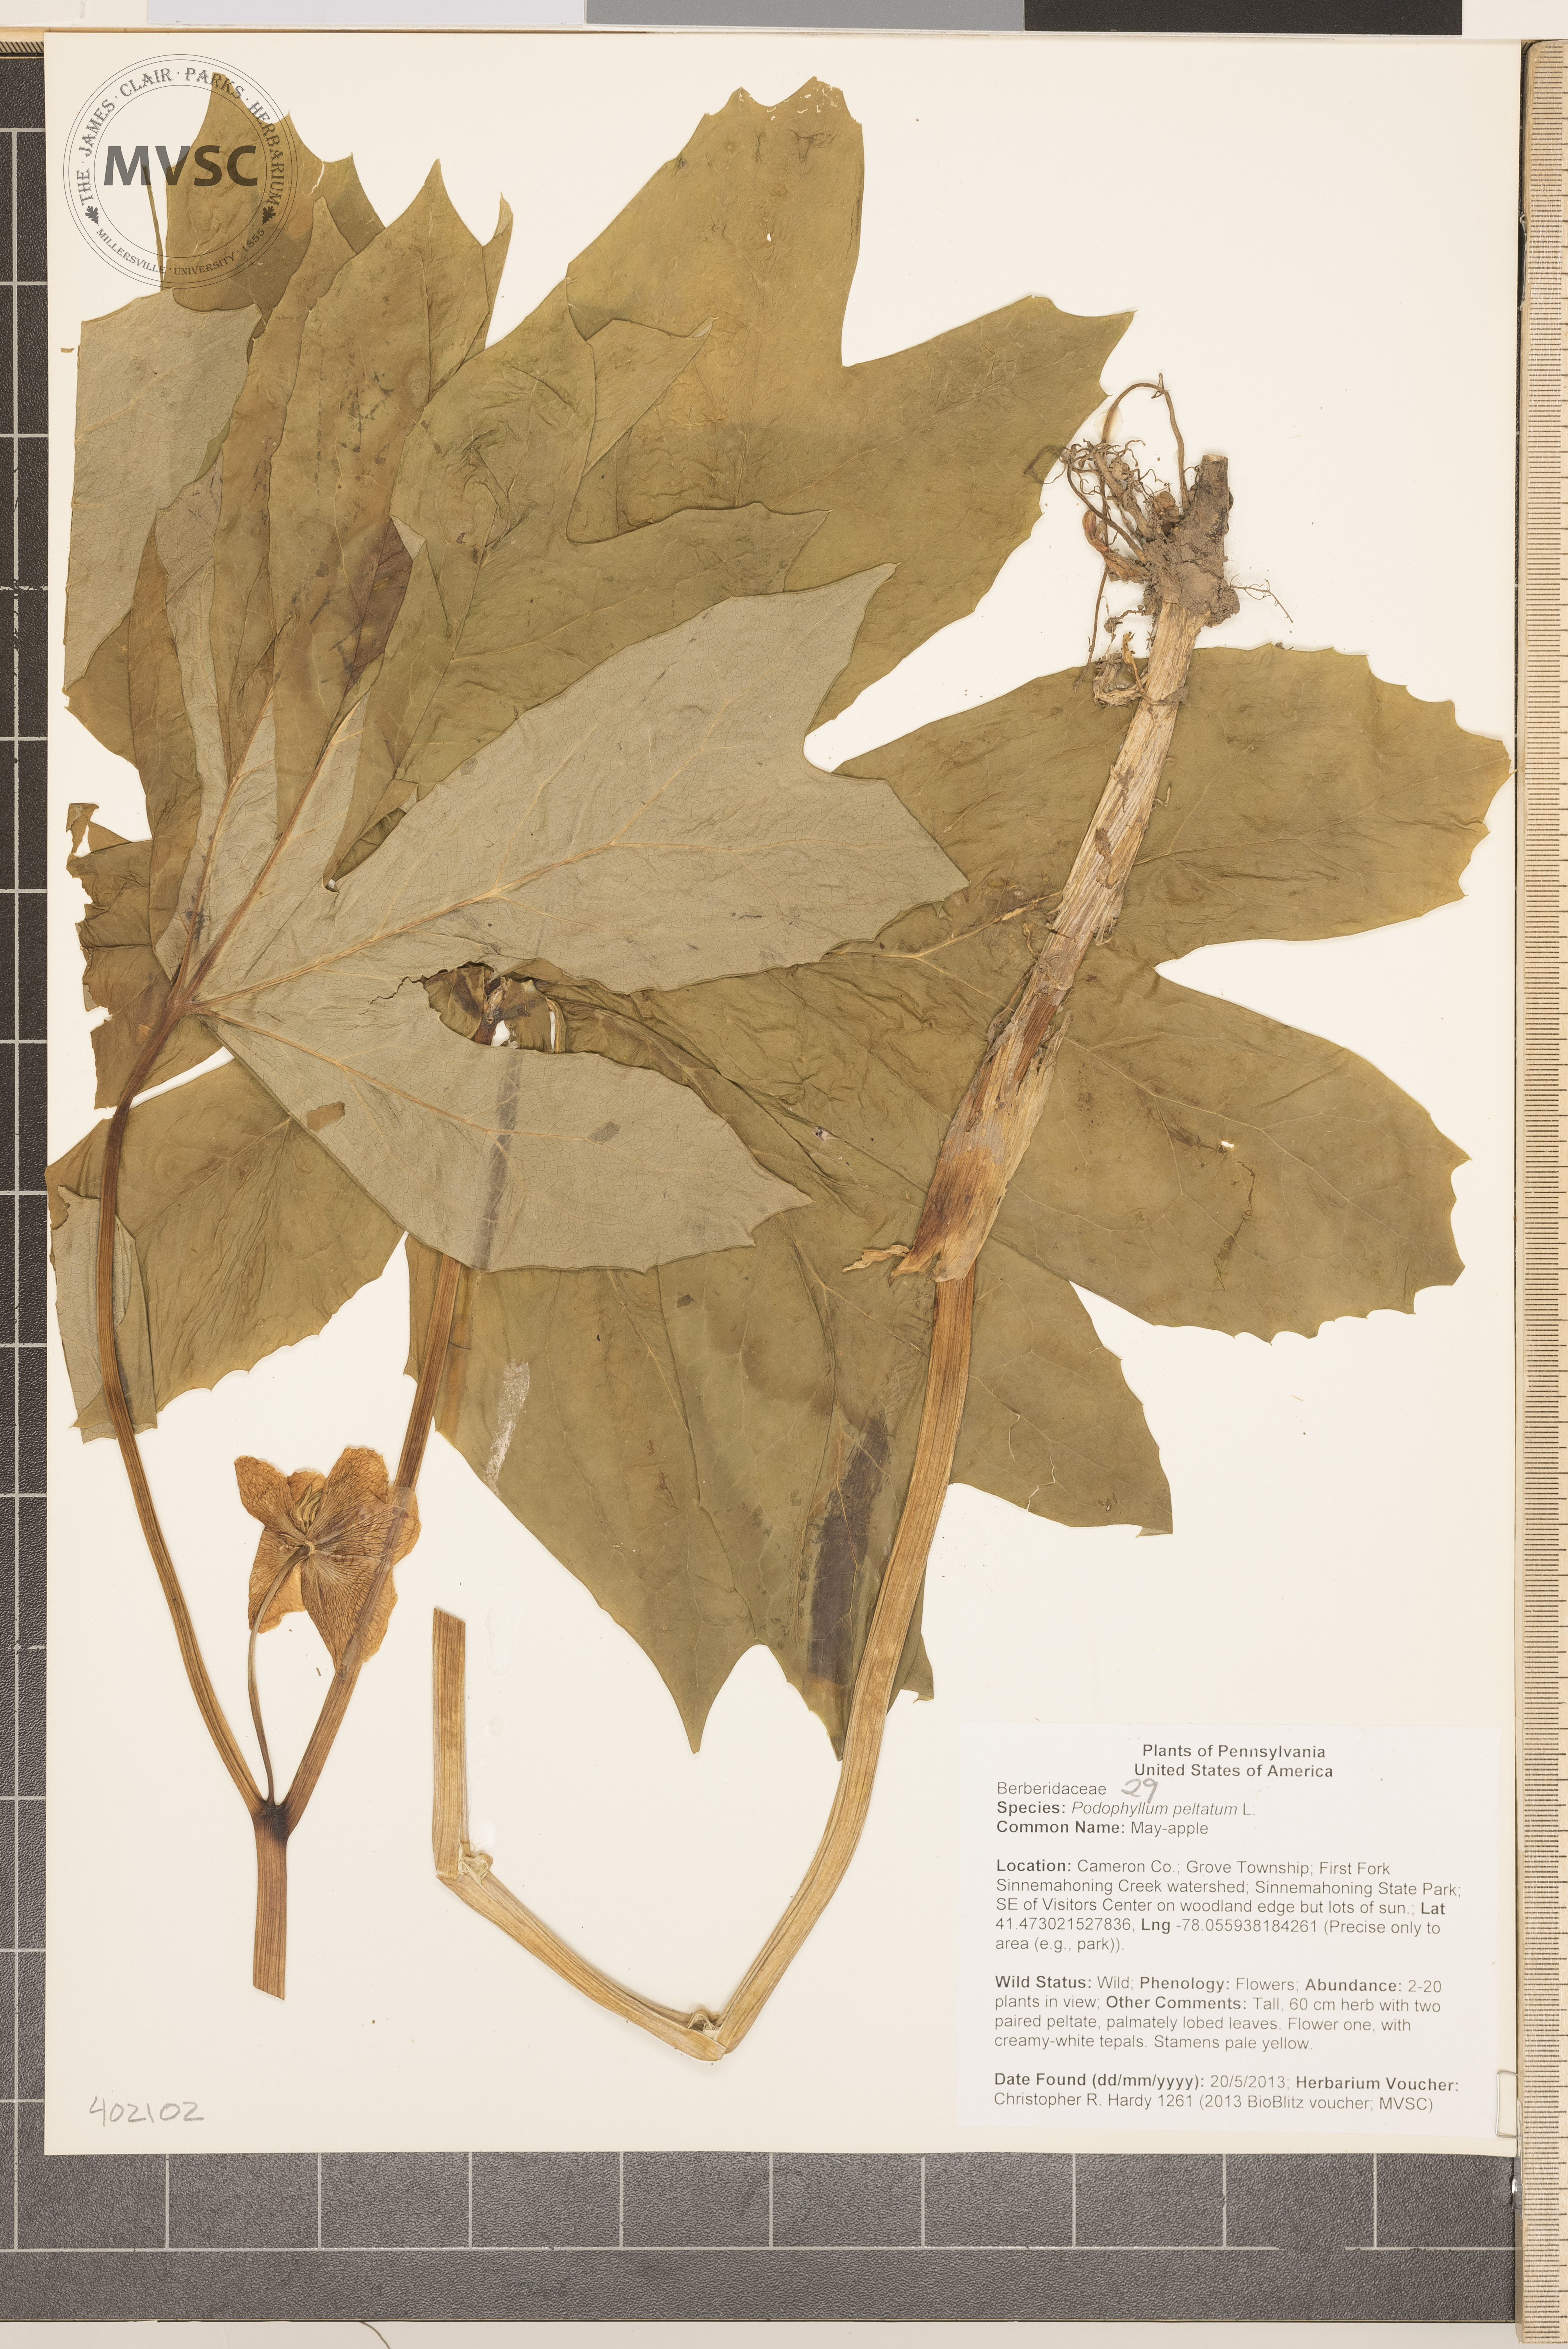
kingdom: Plantae
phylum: Tracheophyta
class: Magnoliopsida
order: Ranunculales
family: Berberidaceae
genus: Podophyllum
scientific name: Podophyllum peltatum
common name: May-apple
